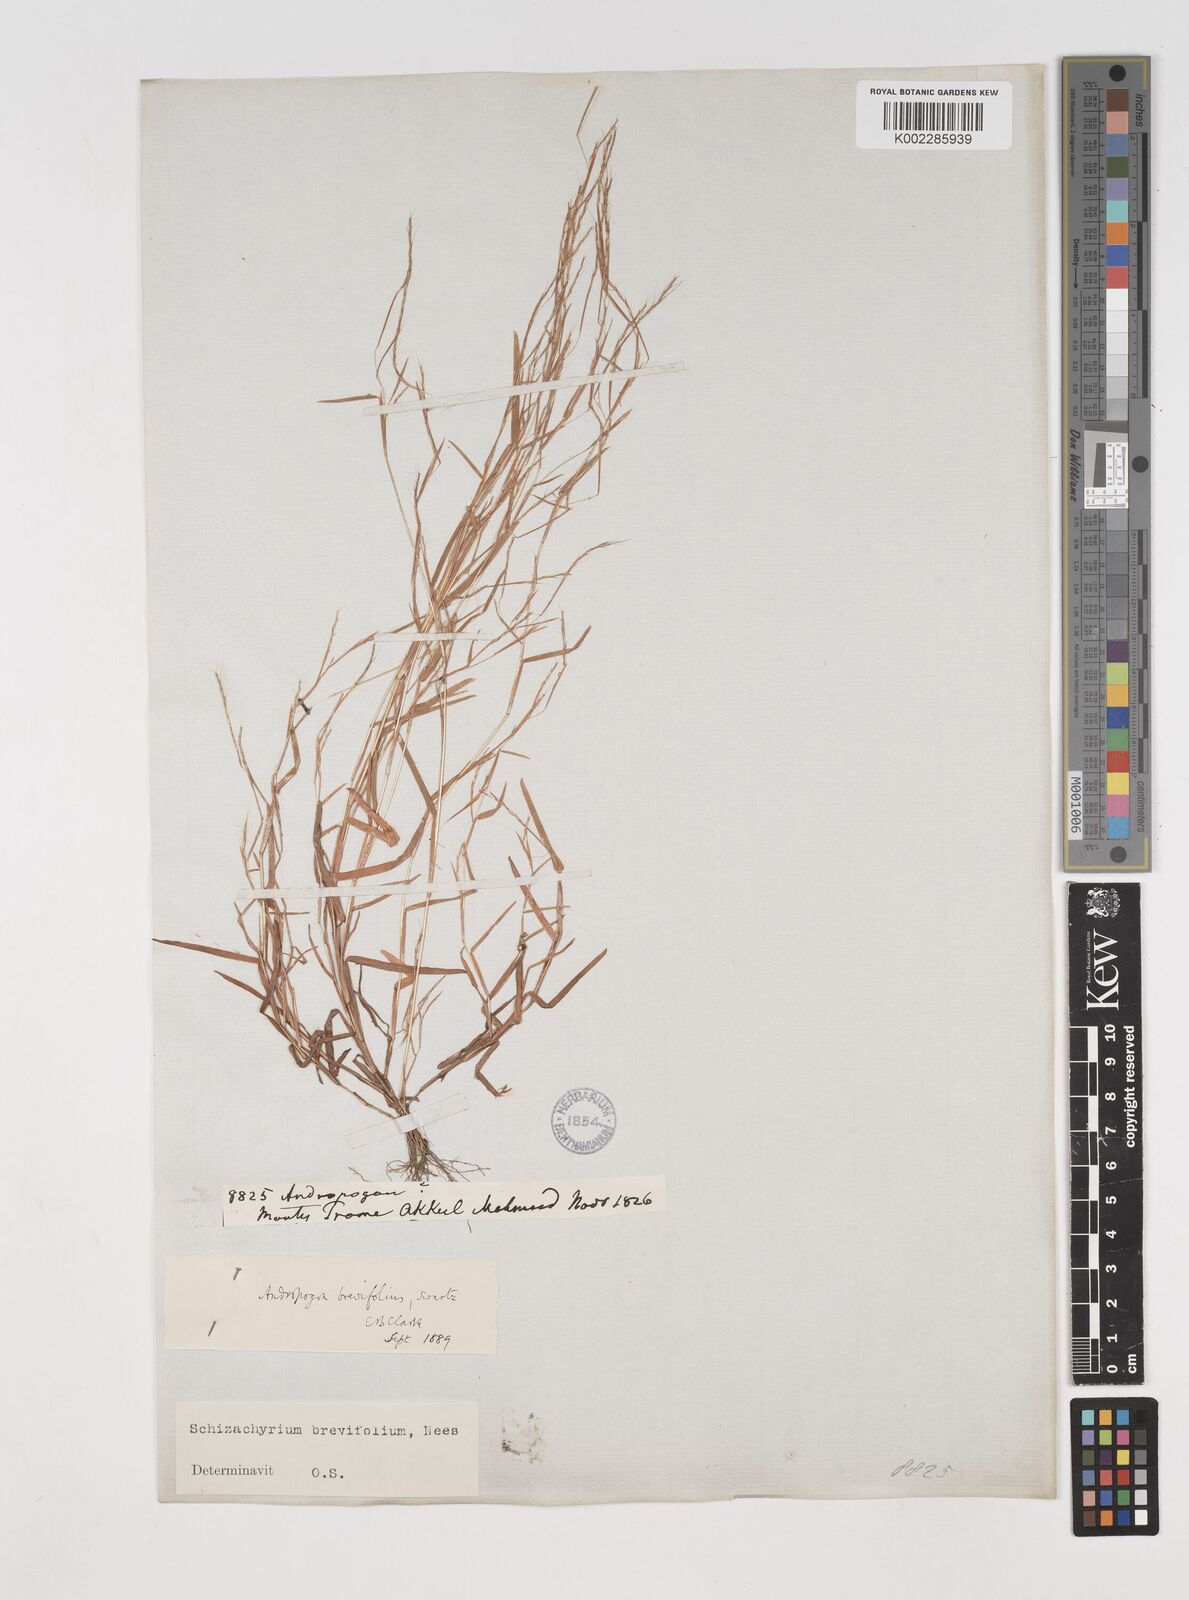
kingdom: Plantae
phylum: Tracheophyta
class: Liliopsida
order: Poales
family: Poaceae
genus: Schizachyrium
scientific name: Schizachyrium brevifolium
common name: Serillo dulce
